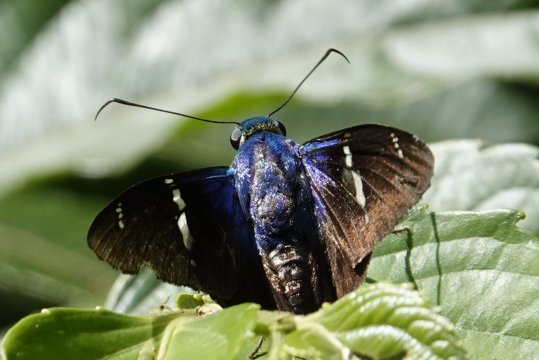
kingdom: Animalia
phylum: Arthropoda
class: Insecta
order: Lepidoptera
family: Hesperiidae
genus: Astraptes
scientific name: Astraptes fulgerator
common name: Two-barred Flasher
